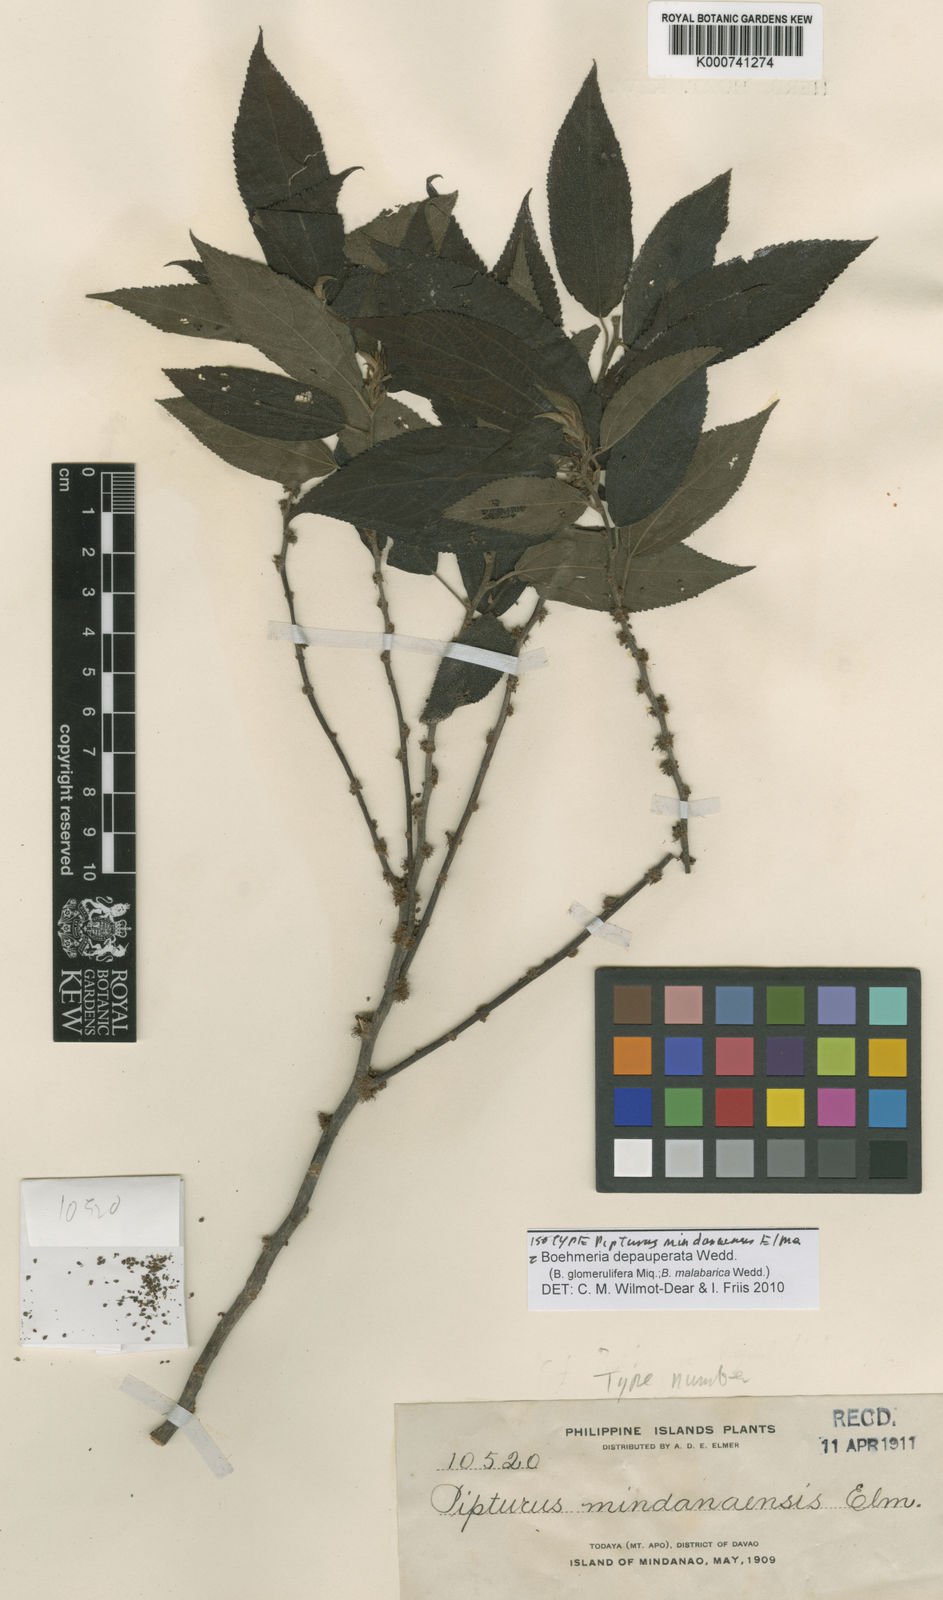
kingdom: Plantae
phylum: Tracheophyta
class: Magnoliopsida
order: Rosales
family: Urticaceae
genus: Boehmeria
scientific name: Boehmeria depauperata
